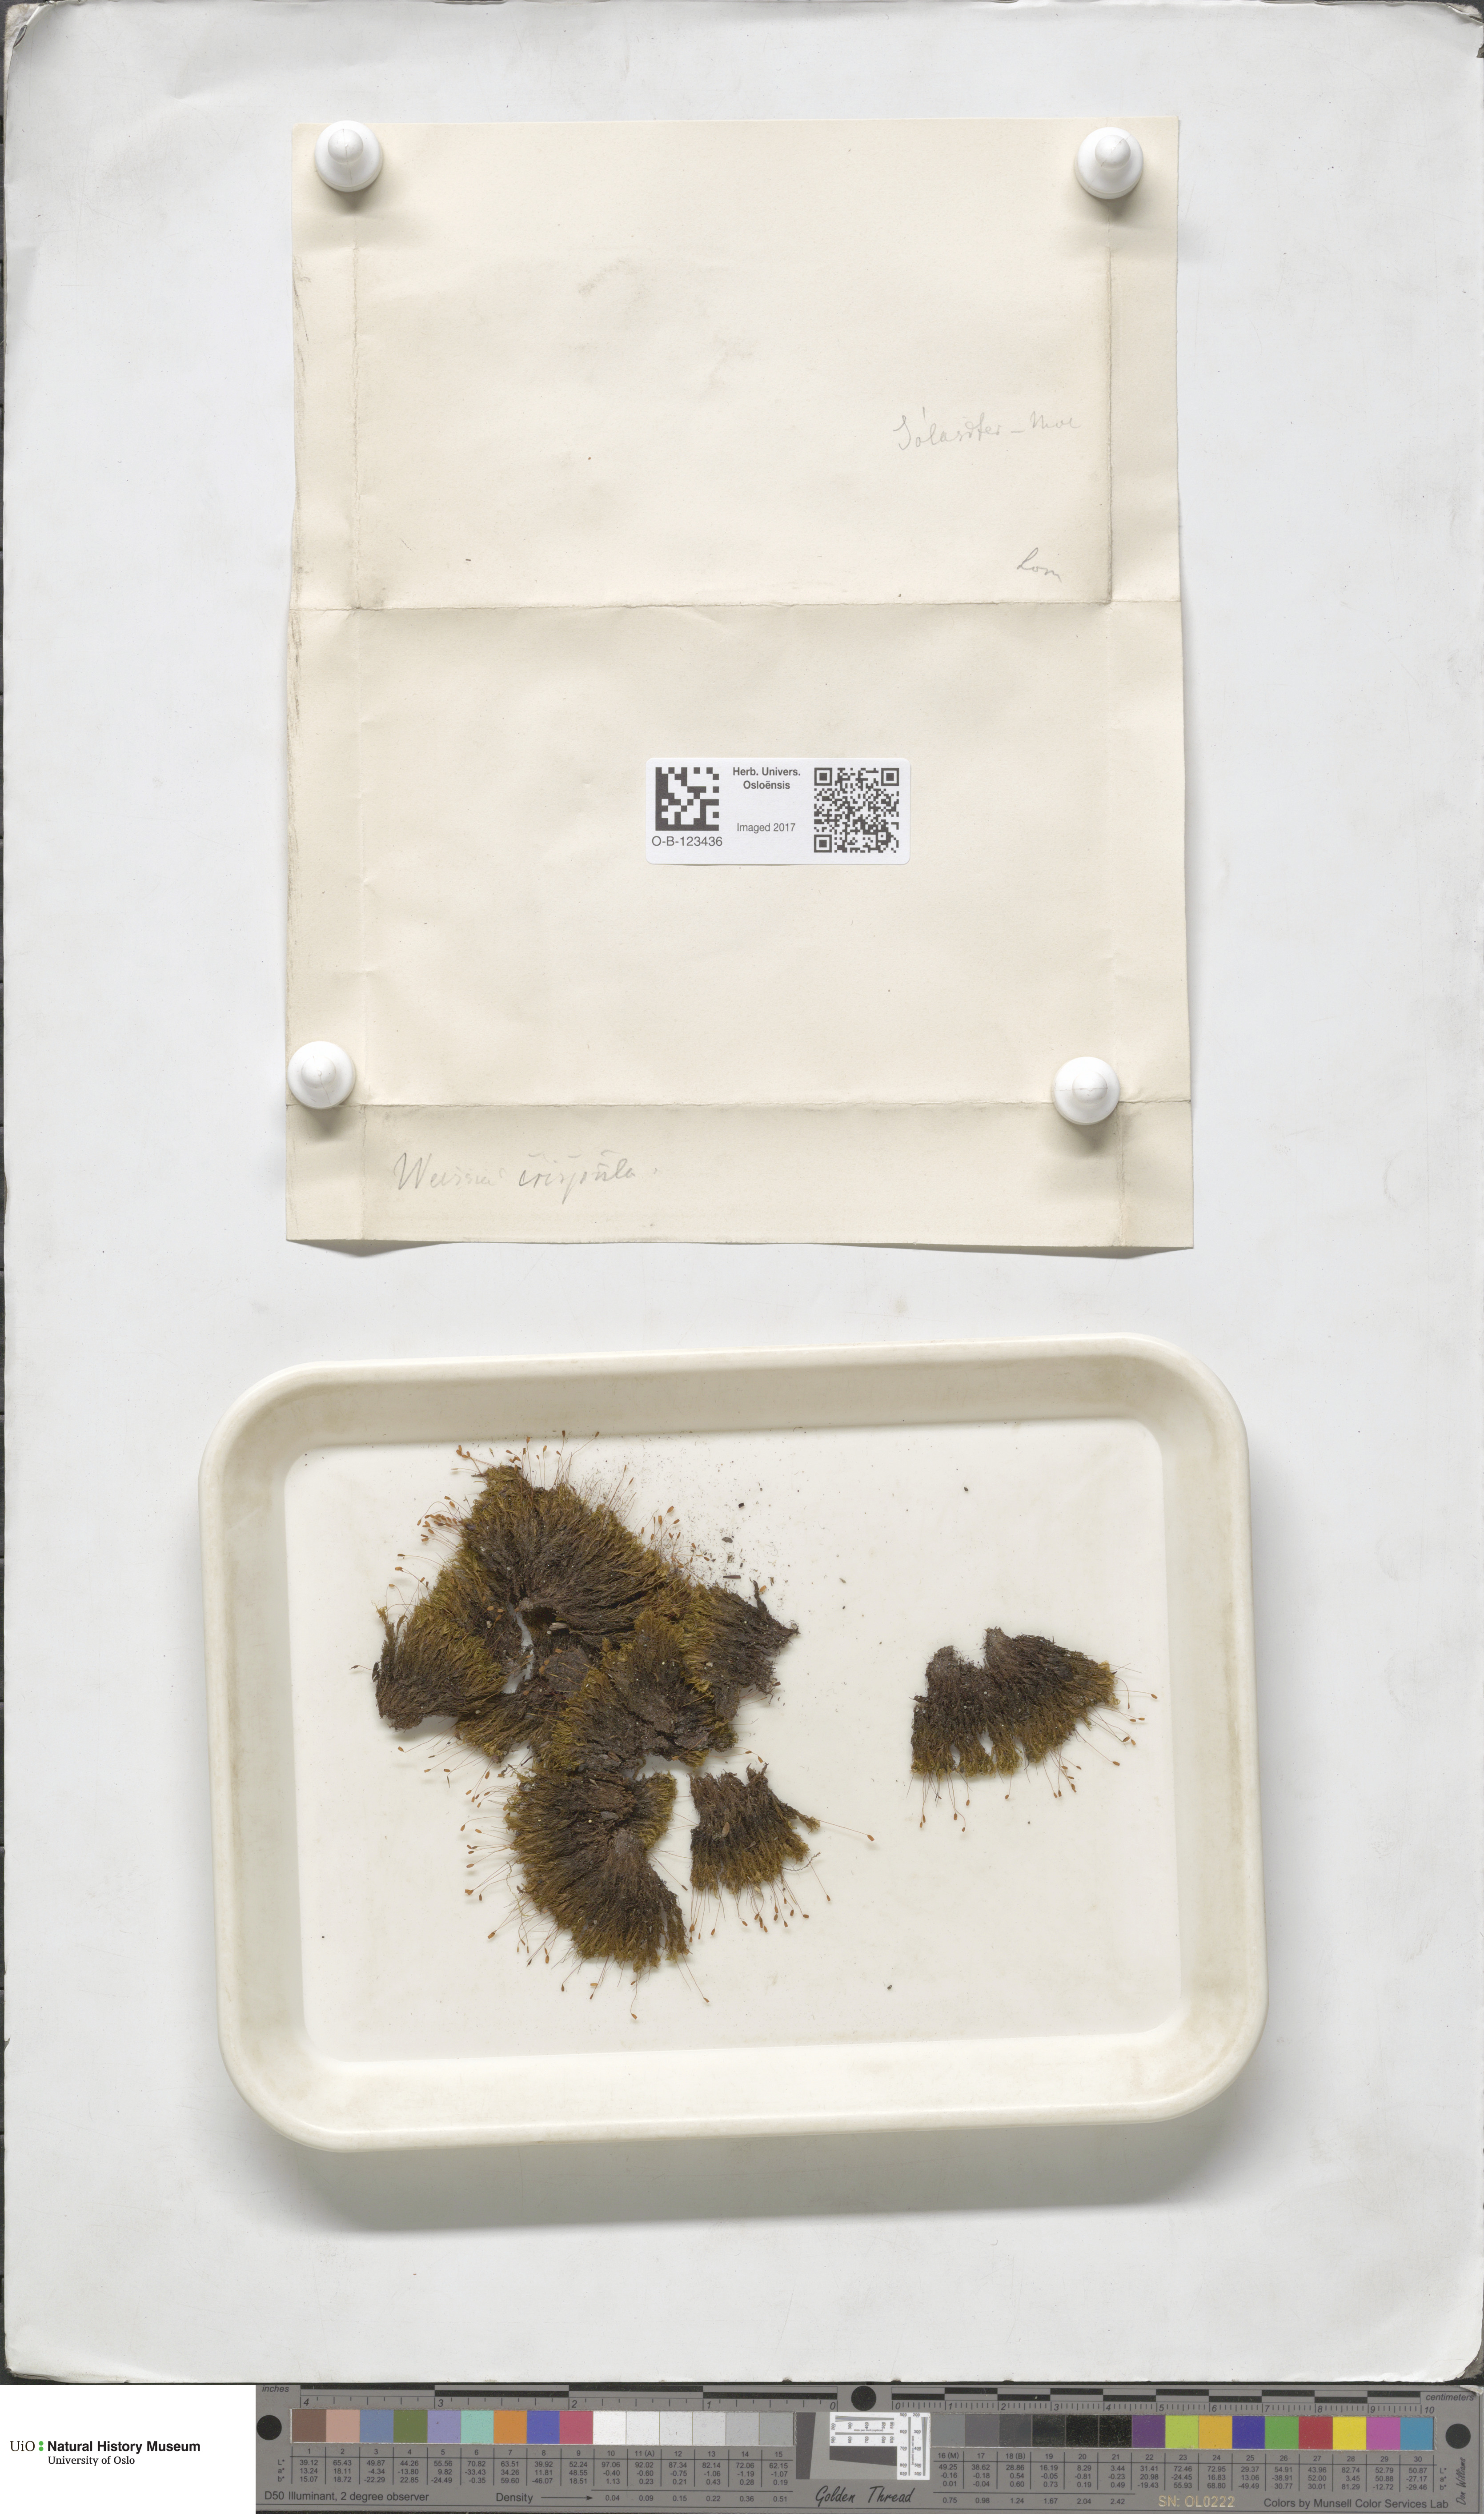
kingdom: Plantae
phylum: Bryophyta
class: Bryopsida
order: Scouleriales
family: Hymenolomataceae
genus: Hymenoloma
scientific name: Hymenoloma crispulum
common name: Mountain pincushion
